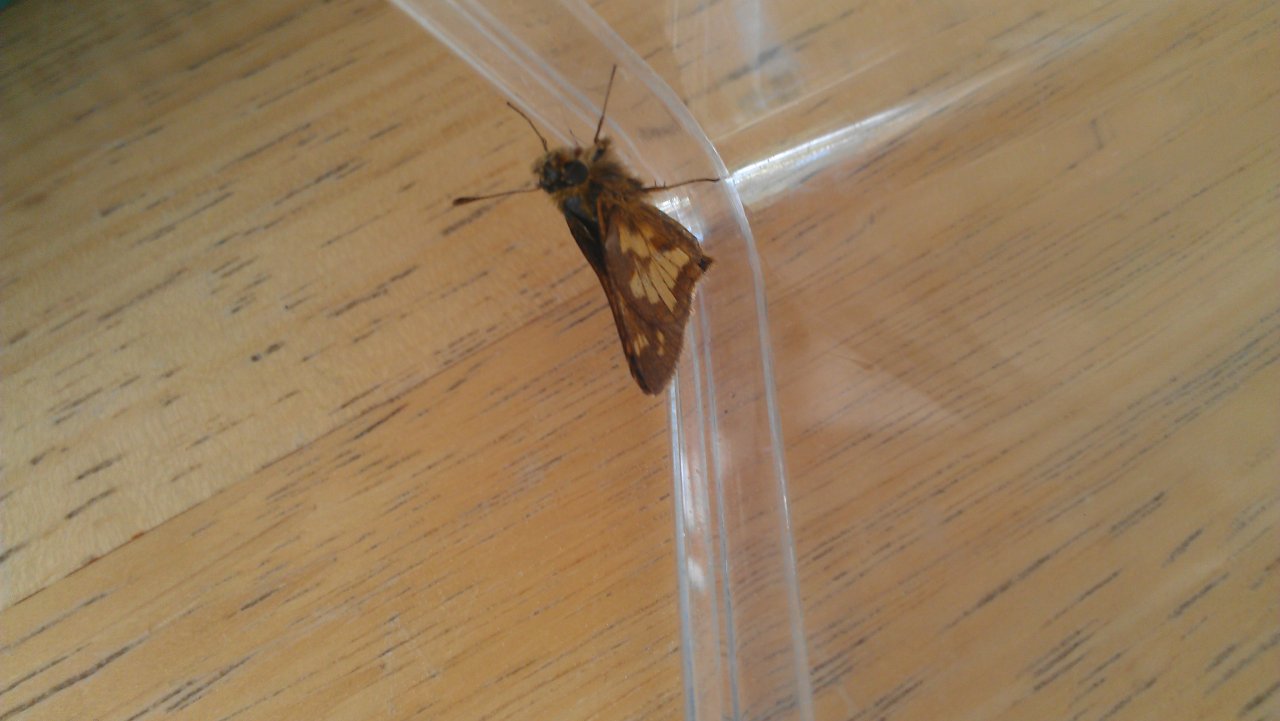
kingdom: Animalia
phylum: Arthropoda
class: Insecta
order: Lepidoptera
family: Hesperiidae
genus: Polites
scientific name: Polites coras
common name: Peck's Skipper
